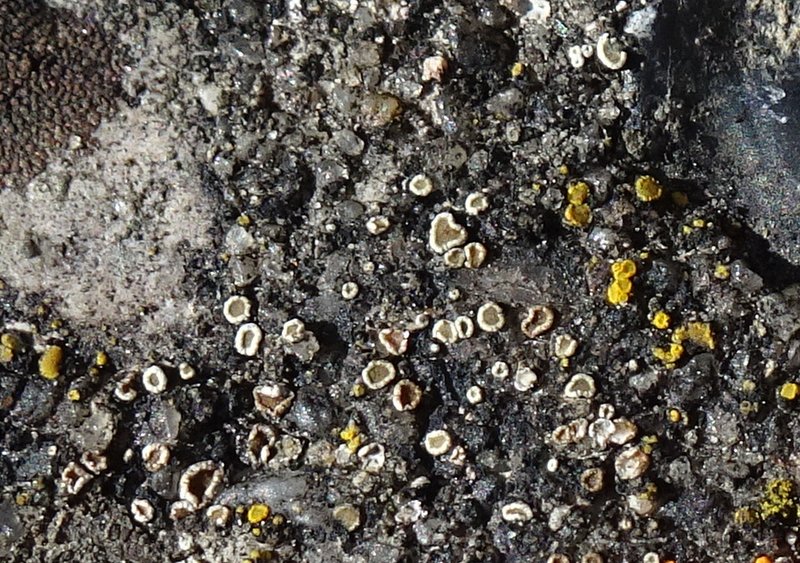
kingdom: Fungi
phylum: Ascomycota
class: Lecanoromycetes
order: Lecanorales
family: Lecanoraceae
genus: Polyozosia
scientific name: Polyozosia dispersa
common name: spredt kantskivelav
